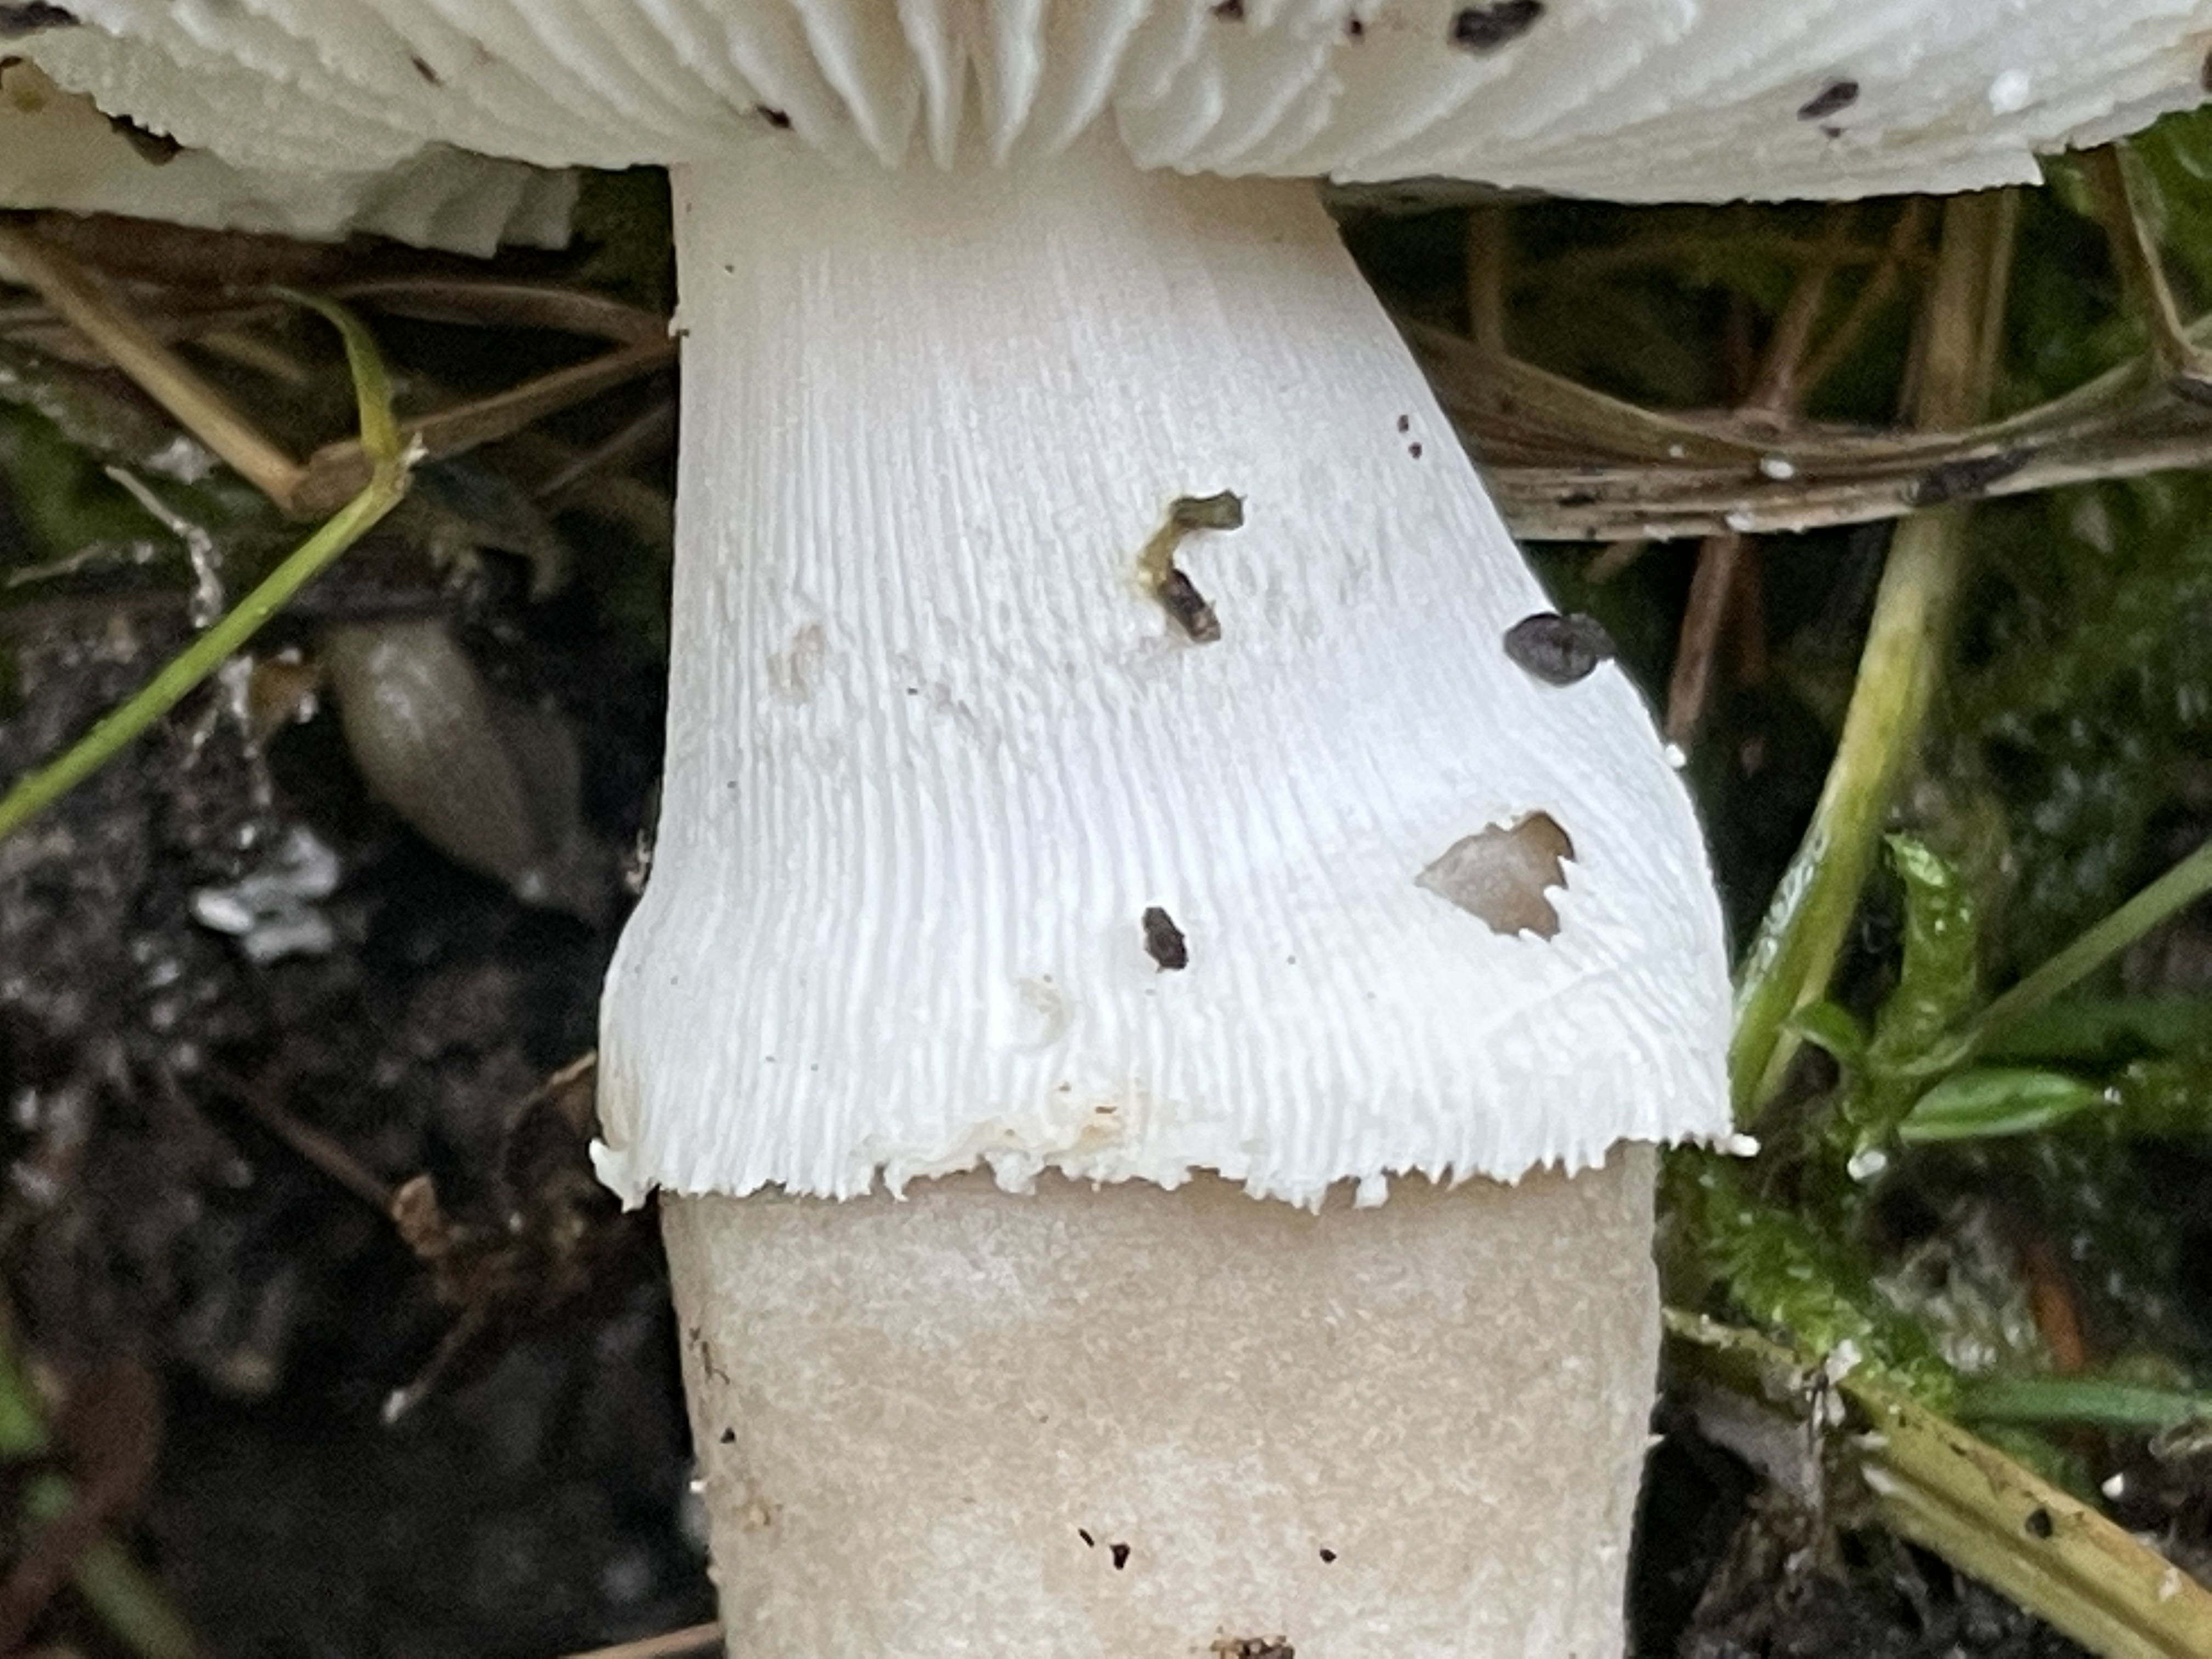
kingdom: Fungi
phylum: Basidiomycota
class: Agaricomycetes
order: Agaricales
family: Amanitaceae
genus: Amanita
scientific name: Amanita
